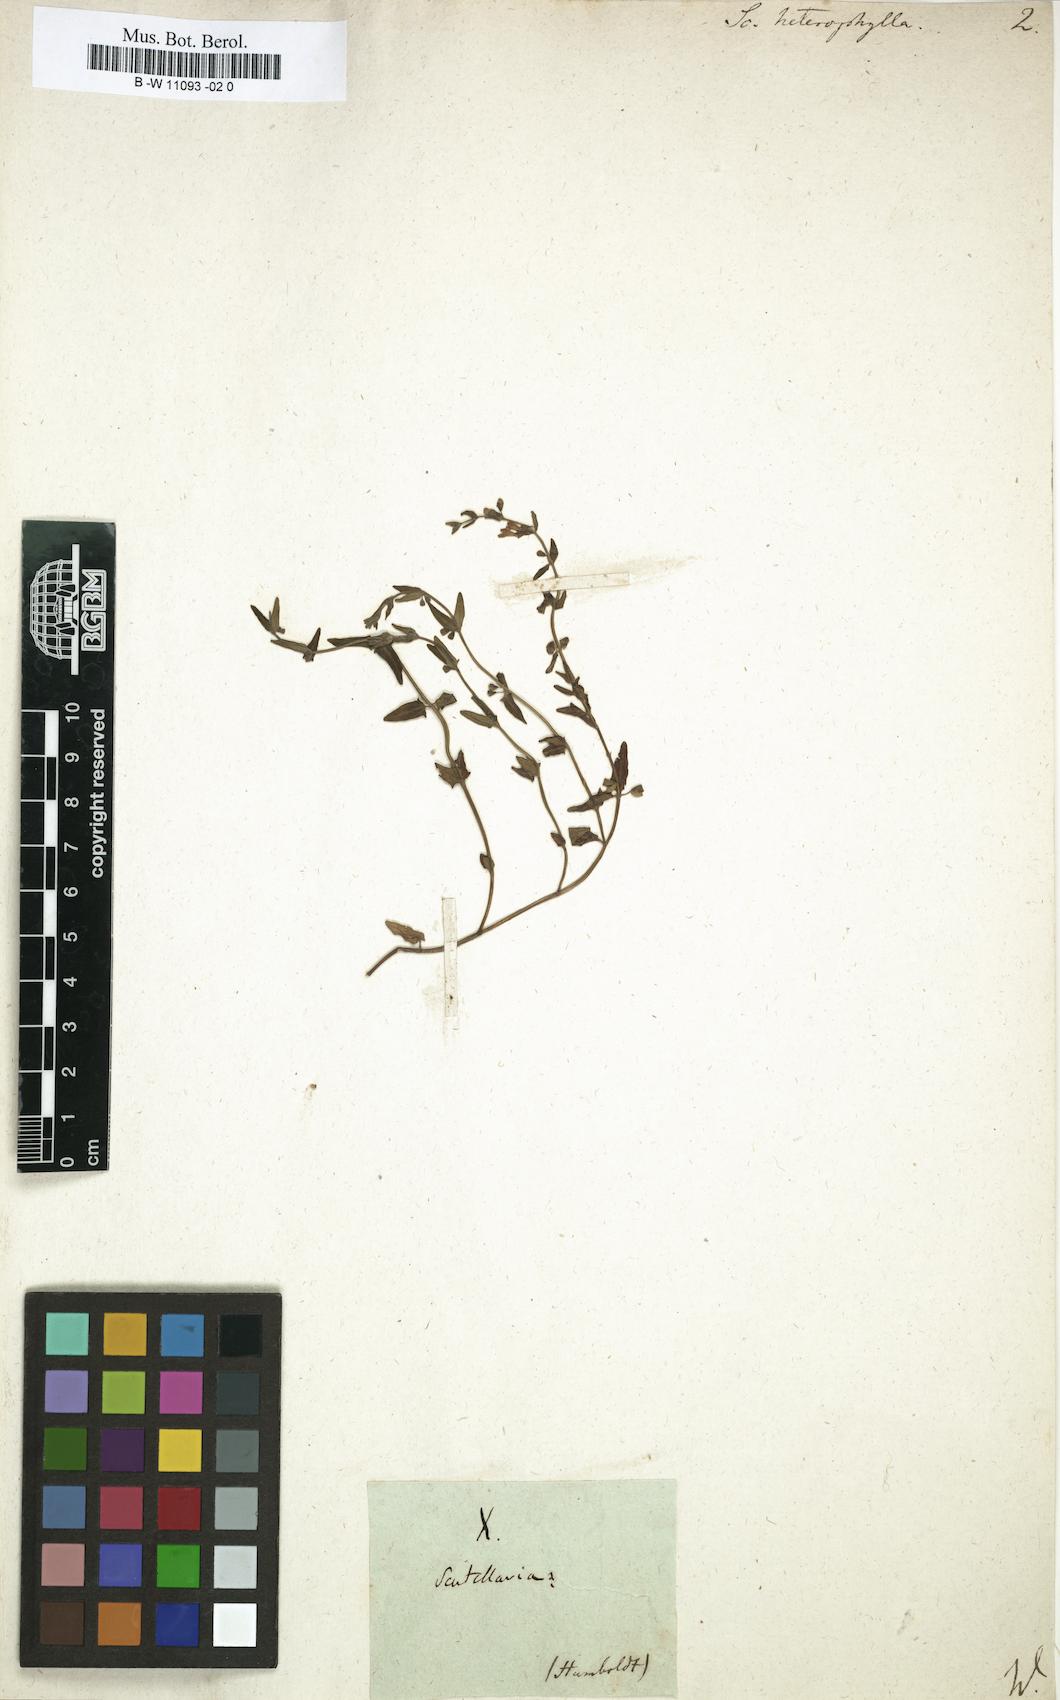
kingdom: Plantae
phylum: Tracheophyta
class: Magnoliopsida
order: Lamiales
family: Lamiaceae
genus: Scutellaria
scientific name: Scutellaria heterophylla
